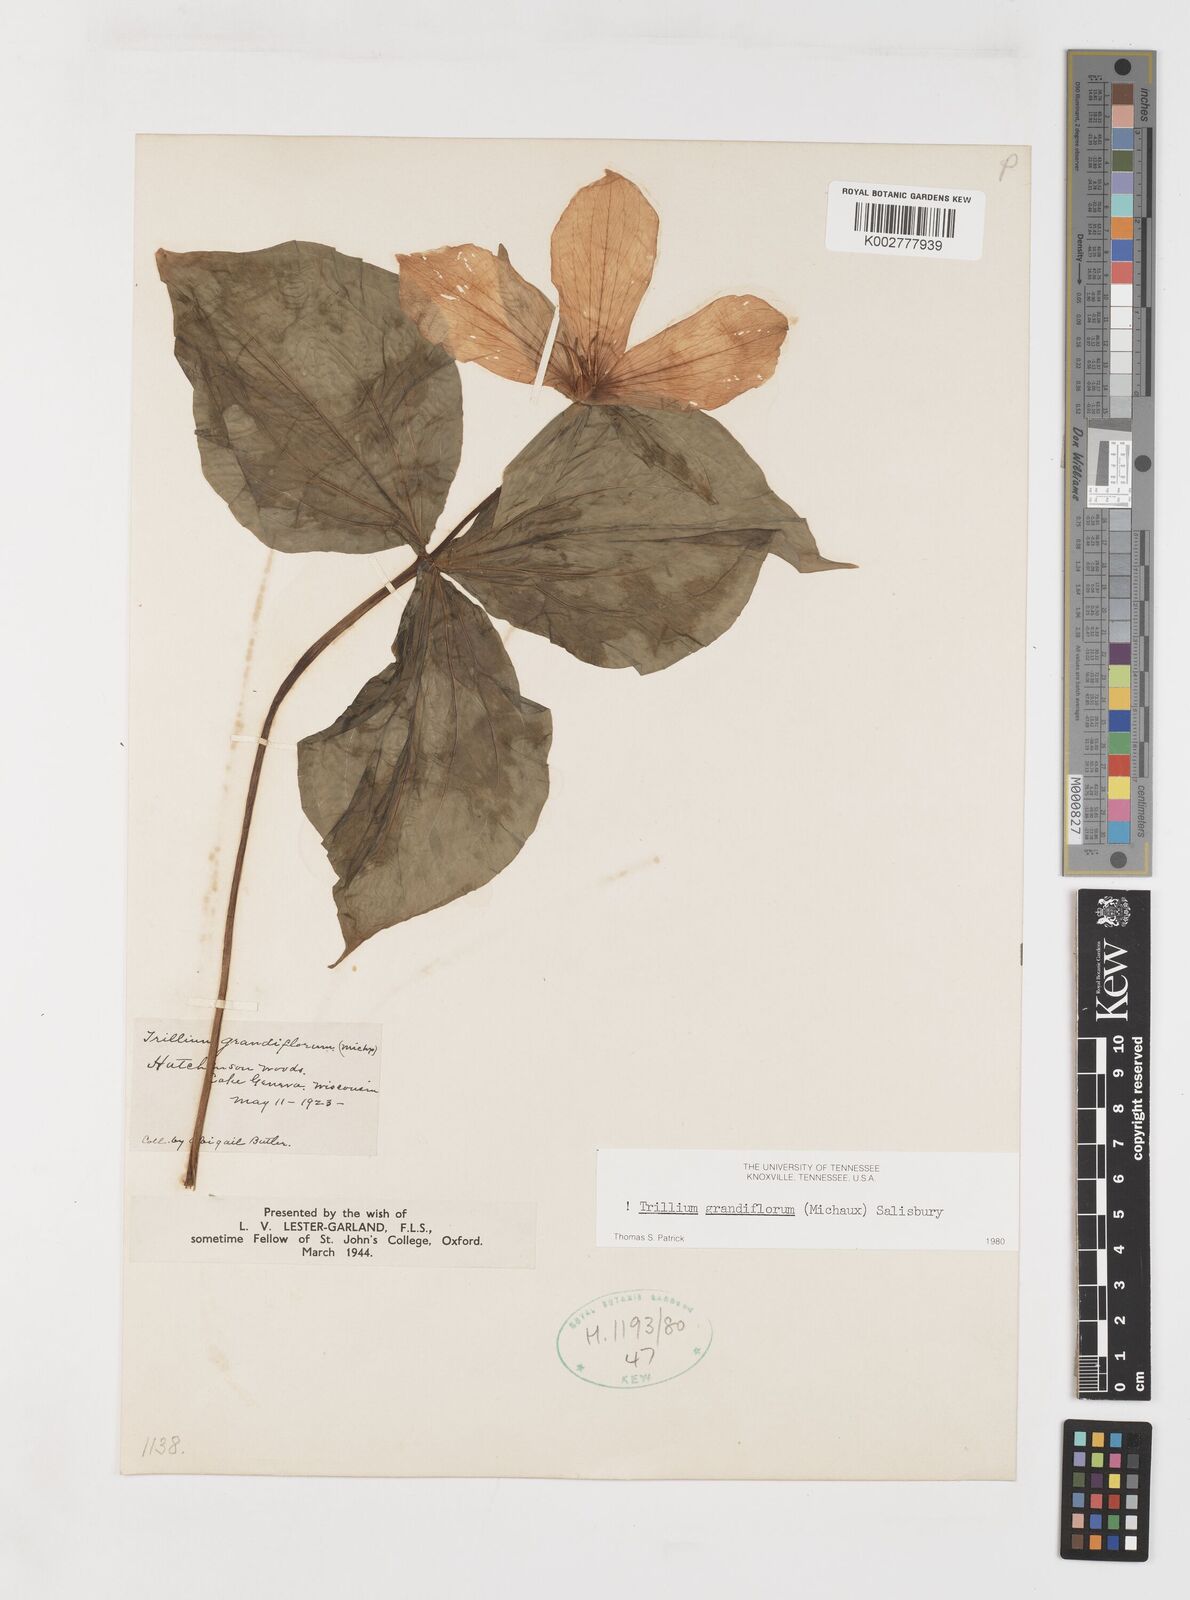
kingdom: Plantae
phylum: Tracheophyta
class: Liliopsida
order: Liliales
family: Melanthiaceae
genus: Trillium
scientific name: Trillium grandiflorum
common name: Great white trillium
